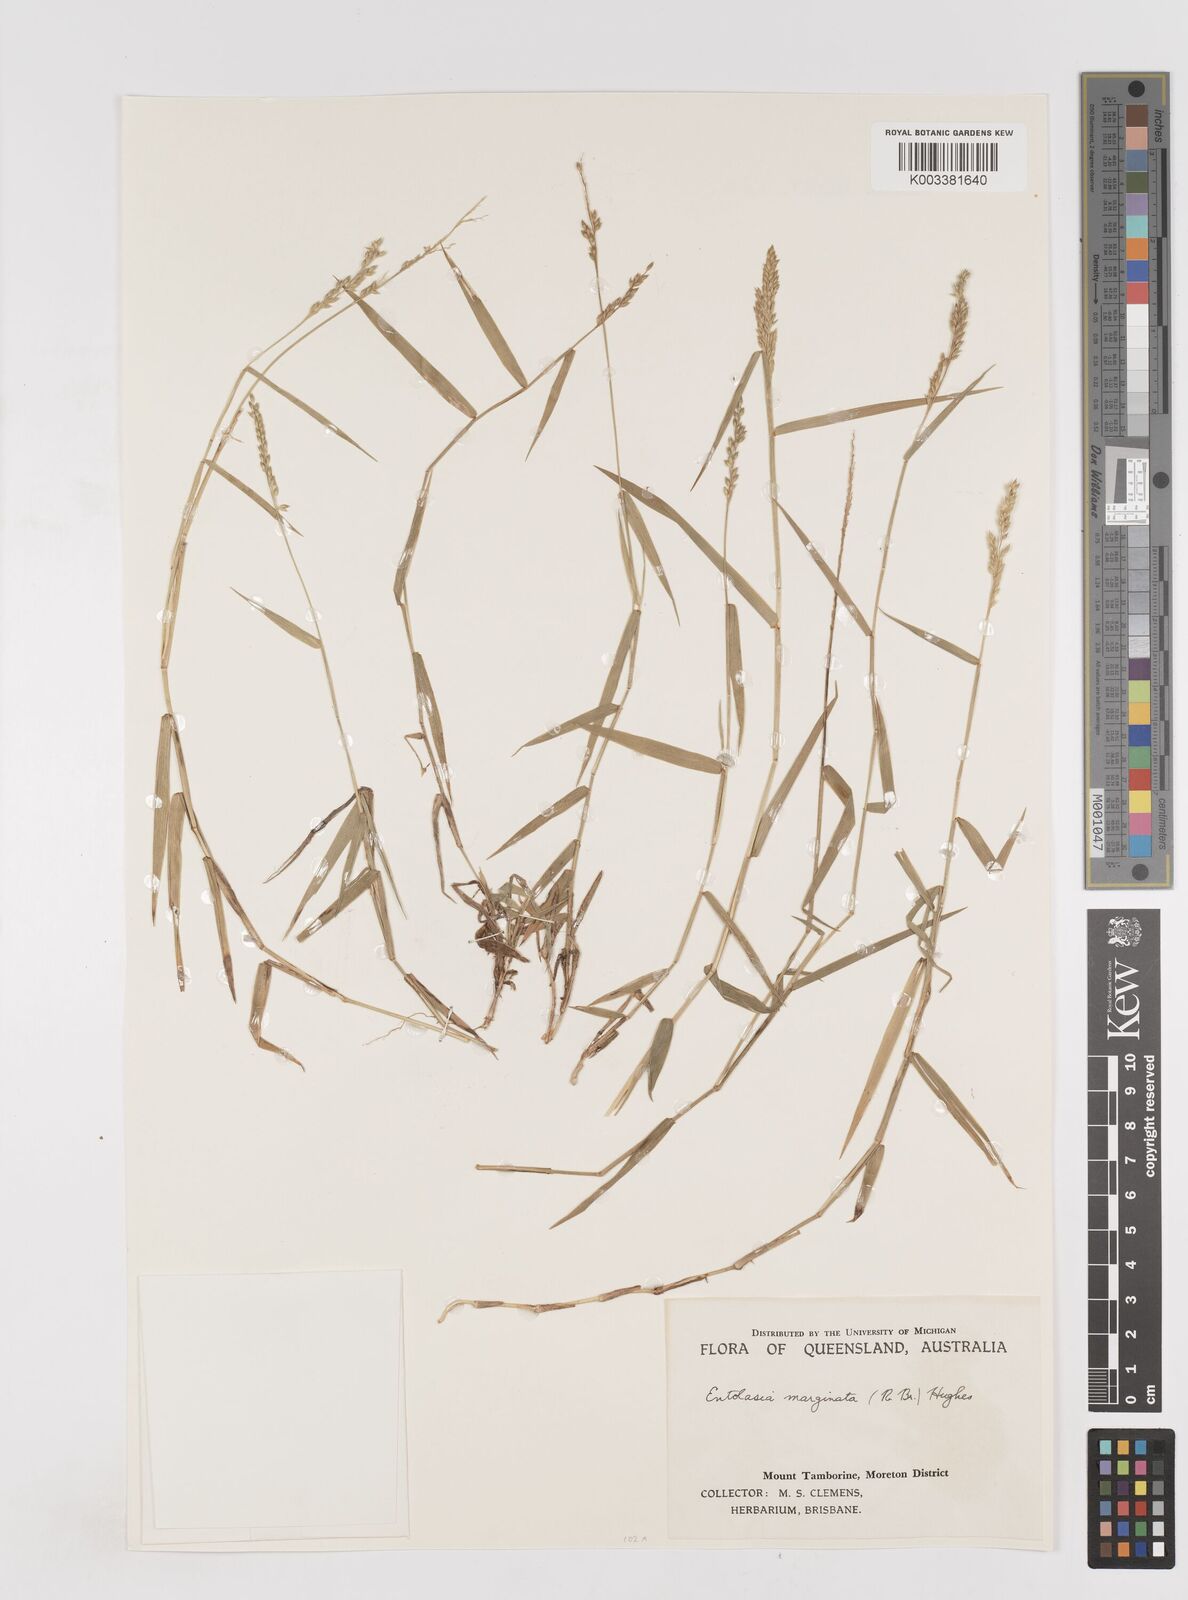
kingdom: Plantae
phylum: Tracheophyta
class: Liliopsida
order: Poales
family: Poaceae
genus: Entolasia
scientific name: Entolasia marginata
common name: Australian panicgrass
